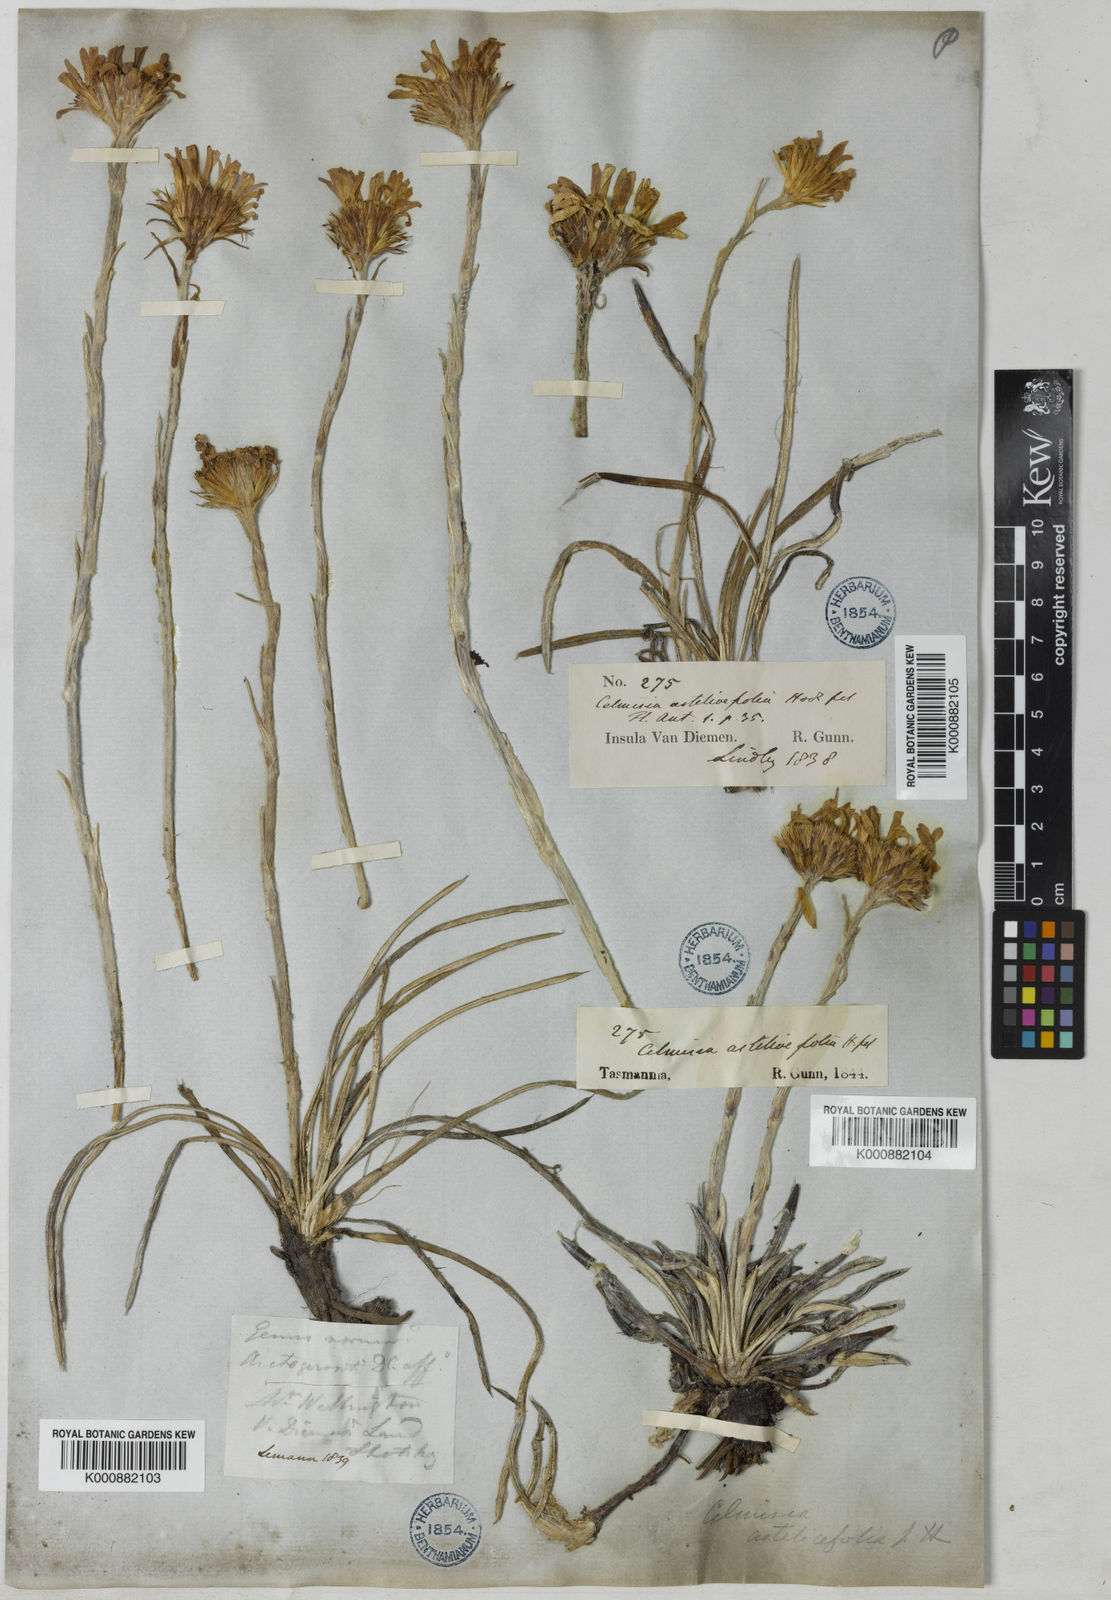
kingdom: Plantae
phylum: Tracheophyta
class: Magnoliopsida
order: Asterales
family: Asteraceae
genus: Celmisia
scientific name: Celmisia longifolia
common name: Silver snow daisy
